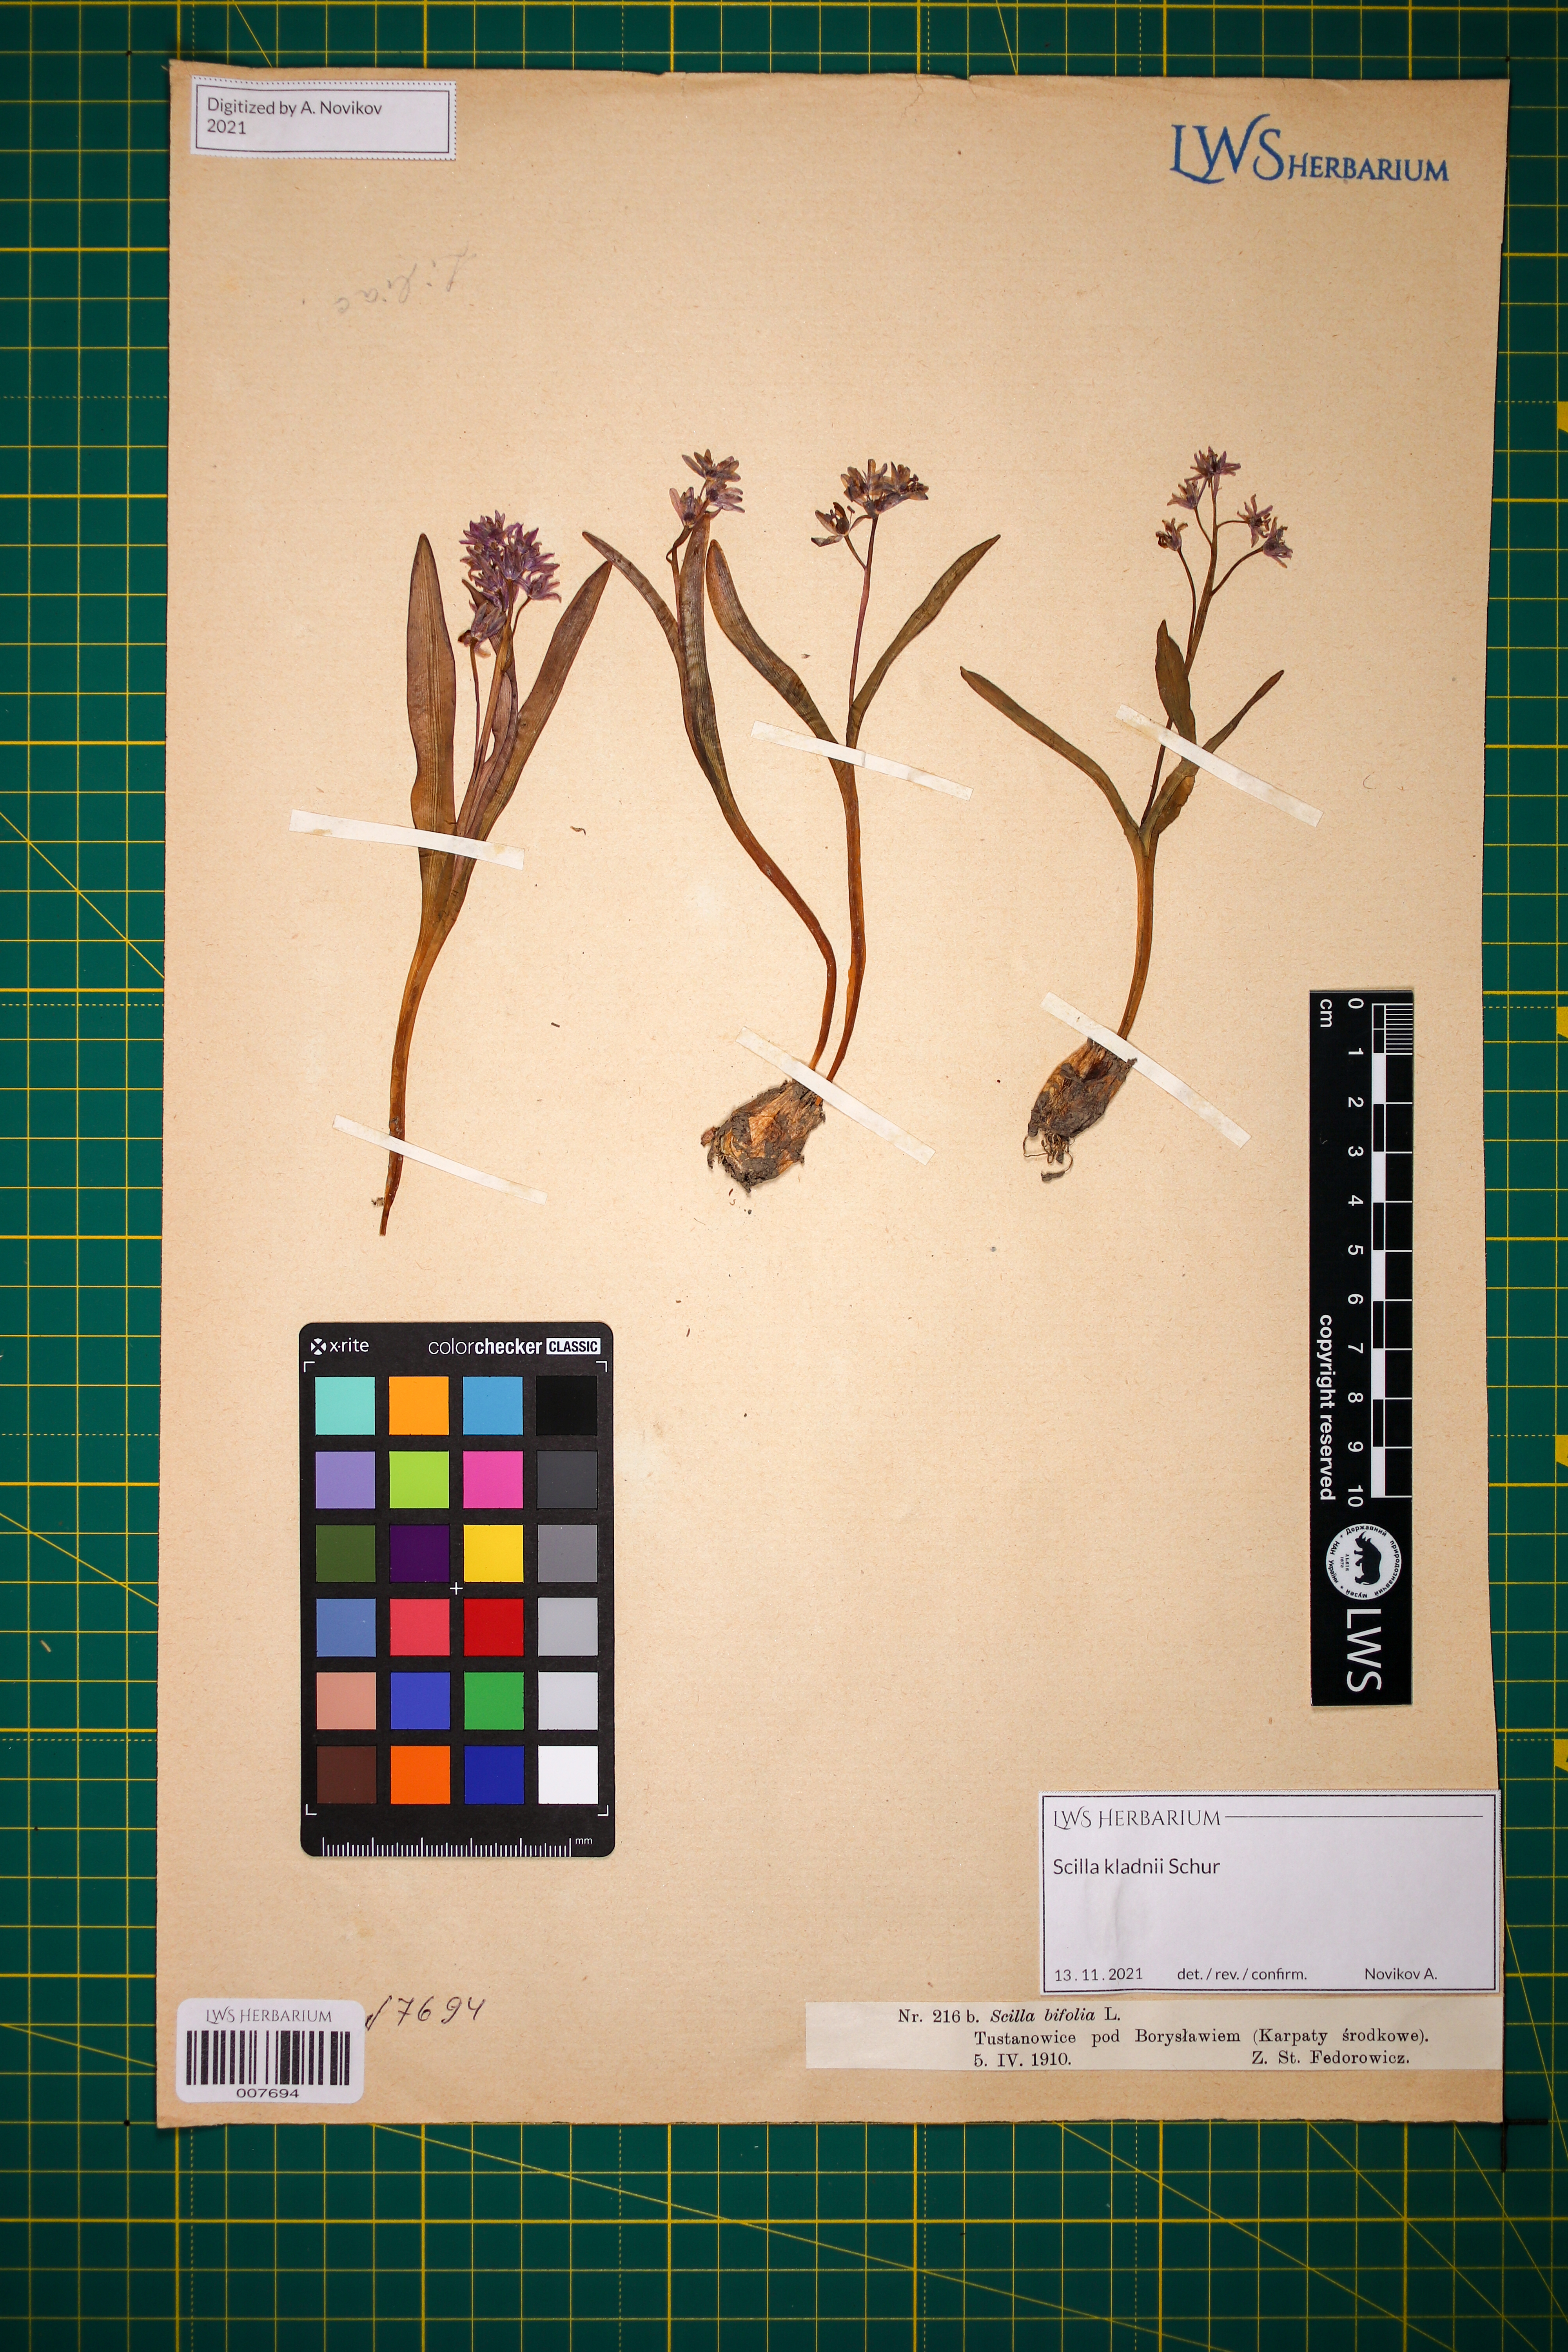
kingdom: Plantae
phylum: Tracheophyta
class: Liliopsida
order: Asparagales
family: Asparagaceae
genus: Scilla
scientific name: Scilla kladnii
